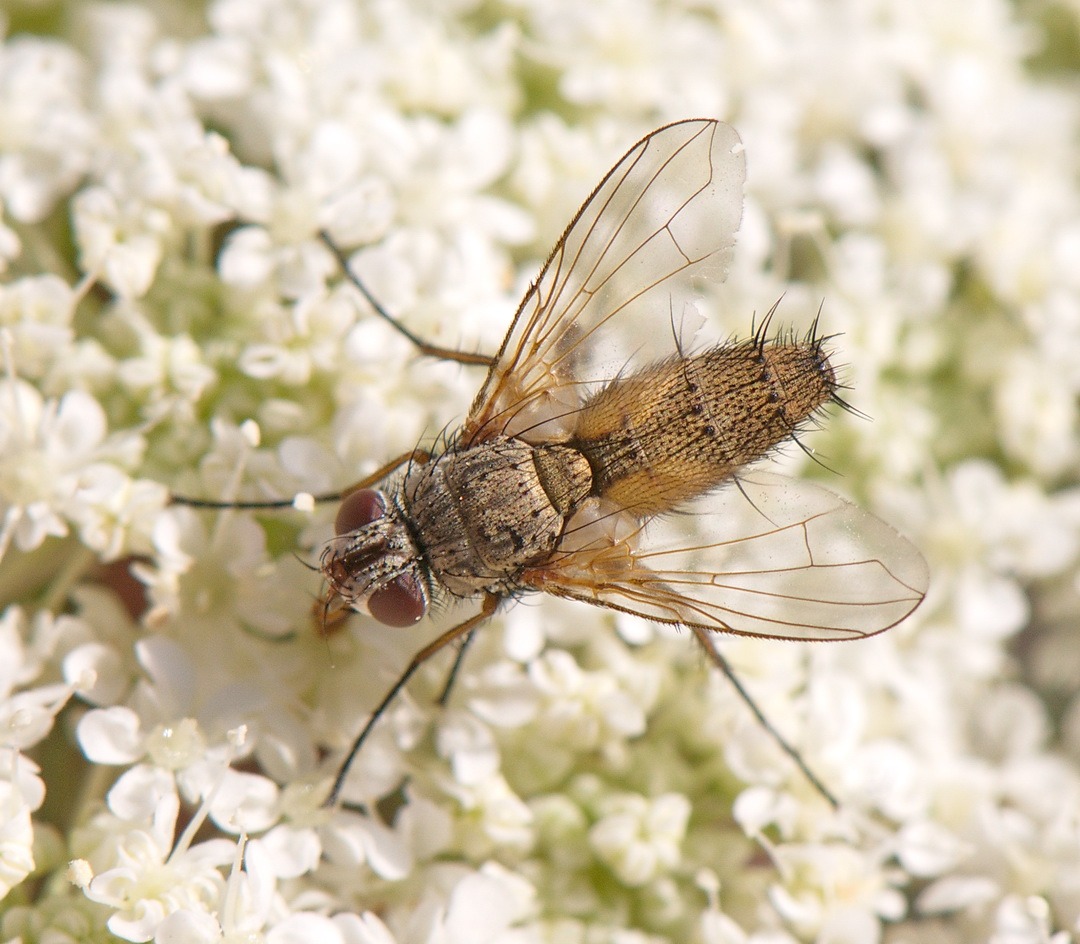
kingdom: Animalia
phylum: Arthropoda
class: Insecta
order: Diptera
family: Tachinidae
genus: Solieria
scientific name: Solieria pacifica
